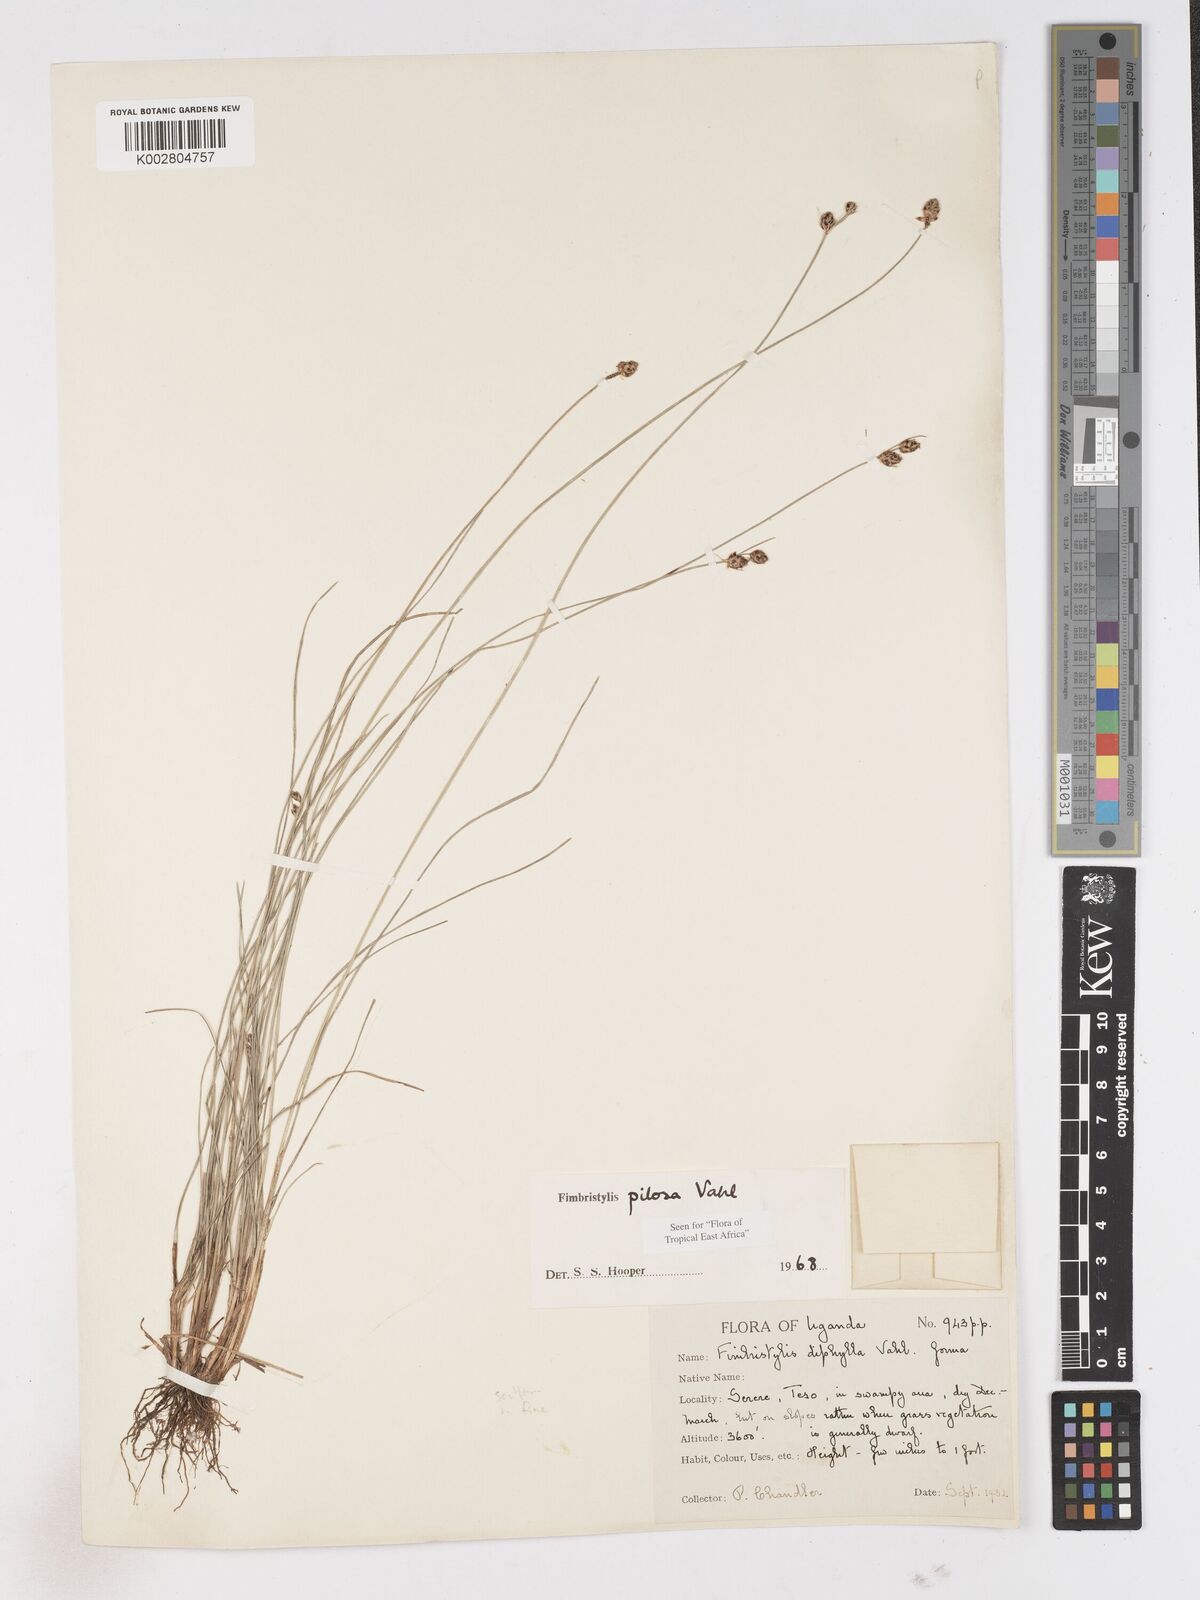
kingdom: Plantae
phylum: Tracheophyta
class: Liliopsida
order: Poales
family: Cyperaceae
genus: Fimbristylis
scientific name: Fimbristylis pilosa
